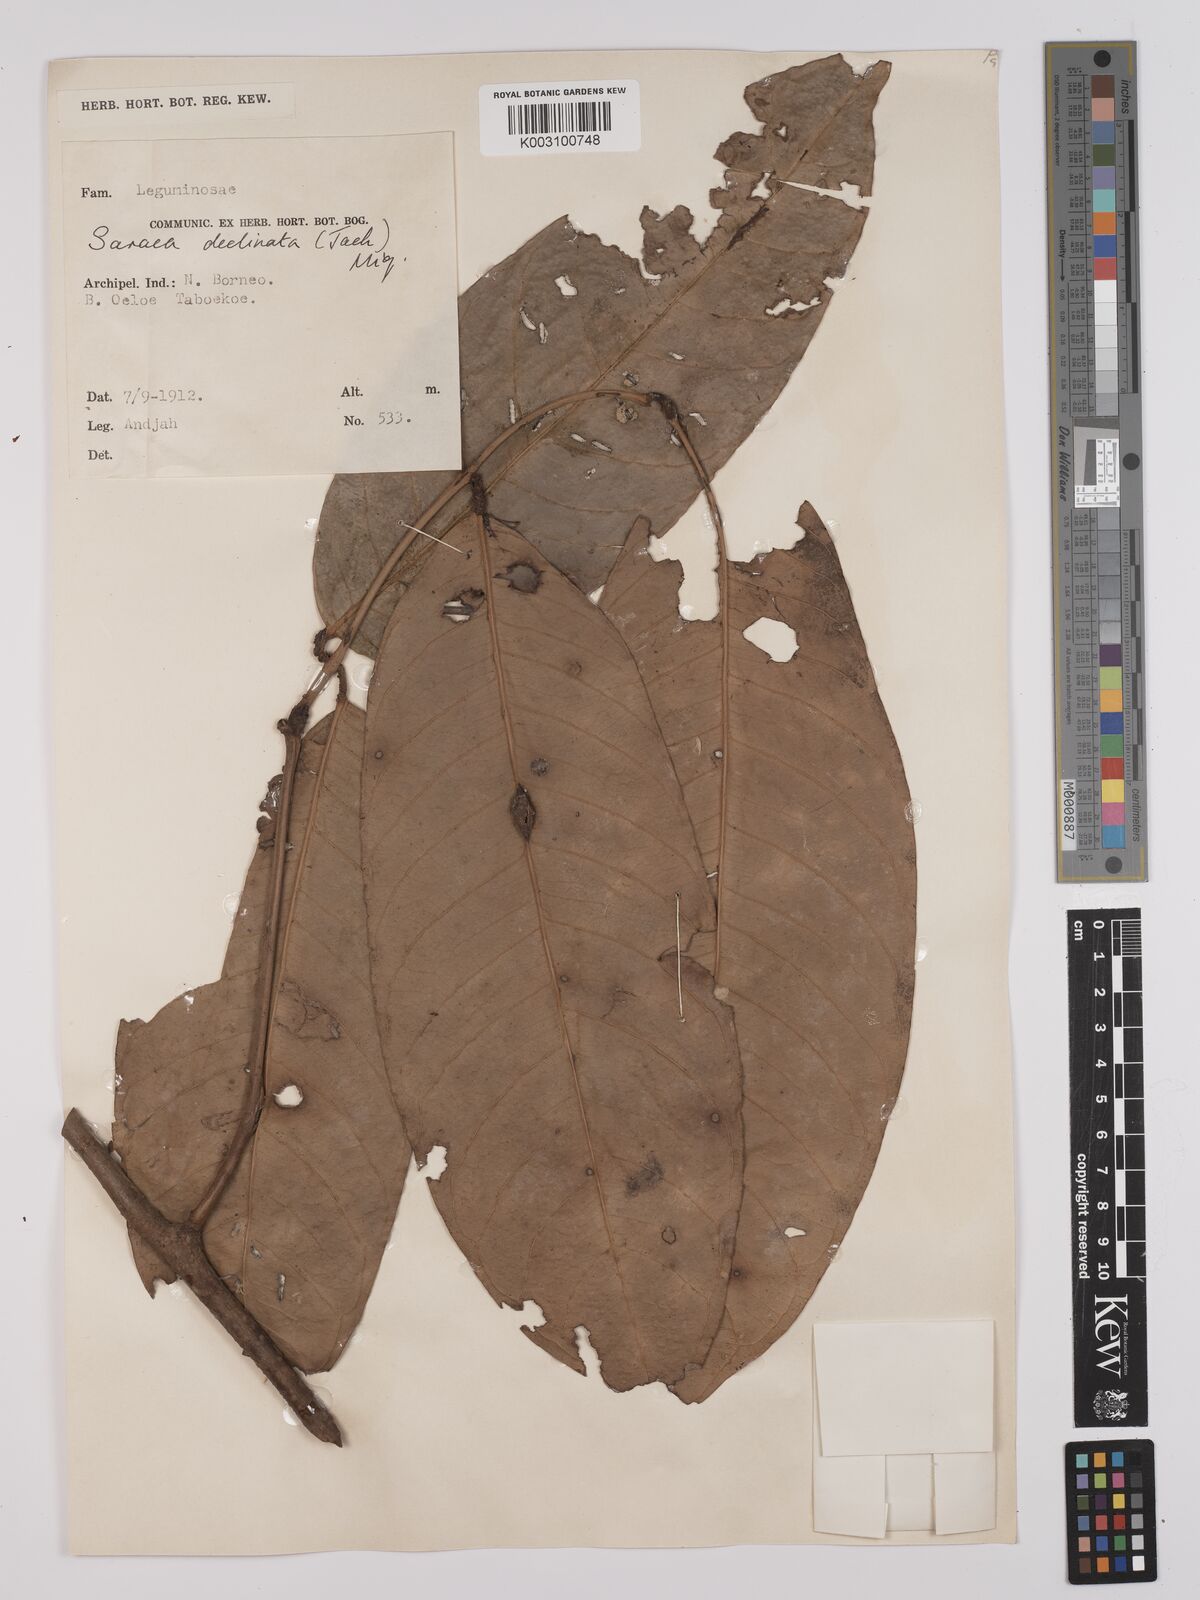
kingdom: Plantae
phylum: Tracheophyta
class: Magnoliopsida
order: Fabales
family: Fabaceae
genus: Saraca
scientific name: Saraca declinata
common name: Red saraca
